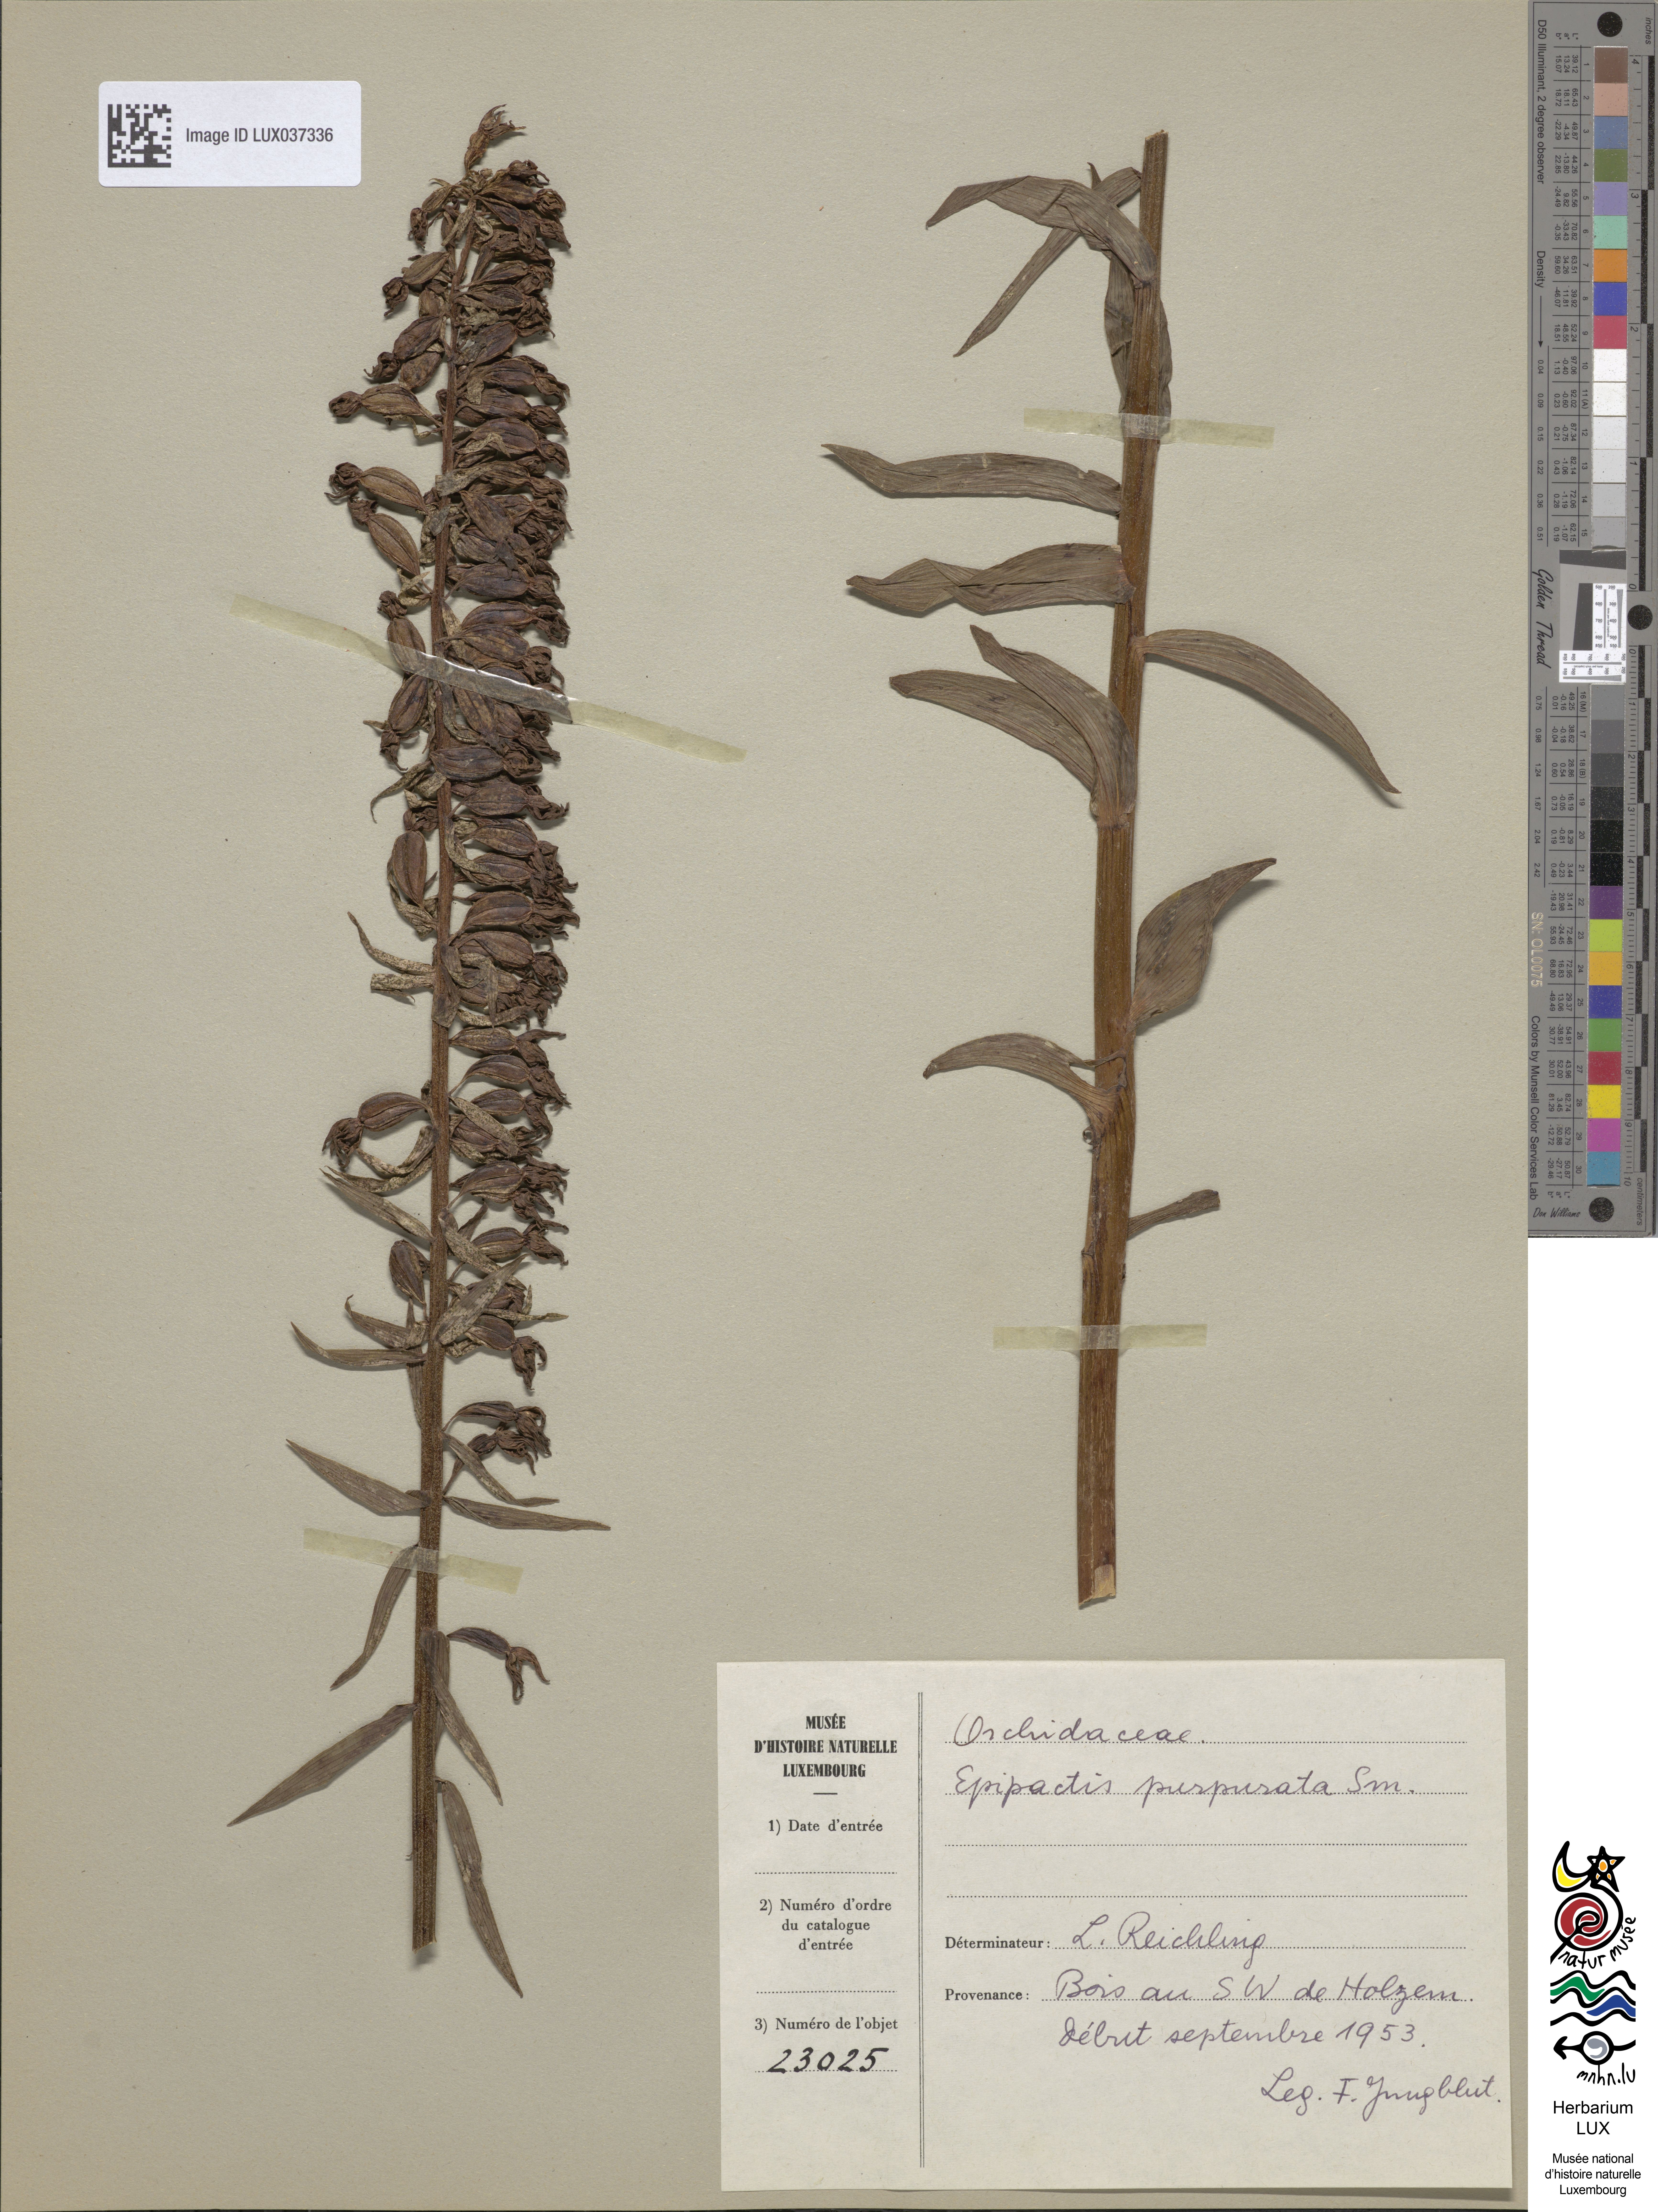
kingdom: Plantae
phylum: Tracheophyta
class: Liliopsida
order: Asparagales
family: Orchidaceae
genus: Epipactis
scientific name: Epipactis purpurata
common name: Violet helleborine
